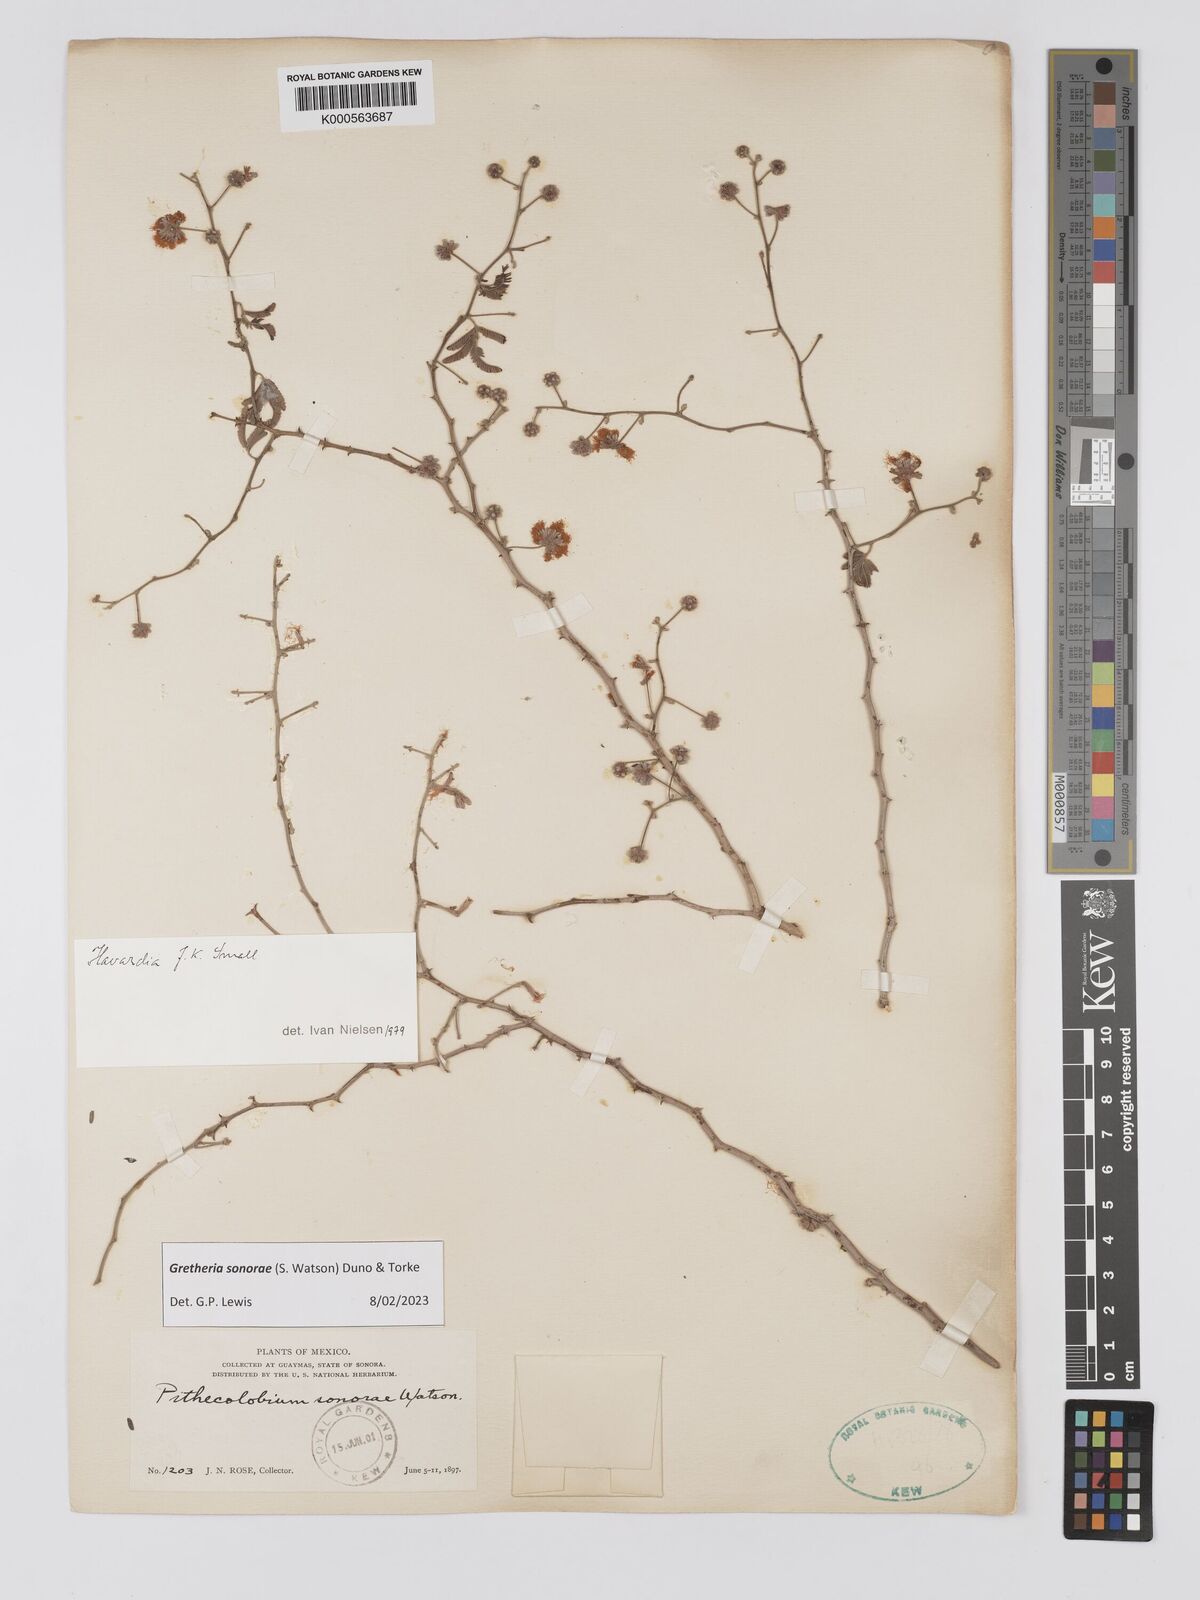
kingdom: Plantae
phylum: Tracheophyta
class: Magnoliopsida
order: Fabales
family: Fabaceae
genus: Havardia
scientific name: Havardia sonorae
